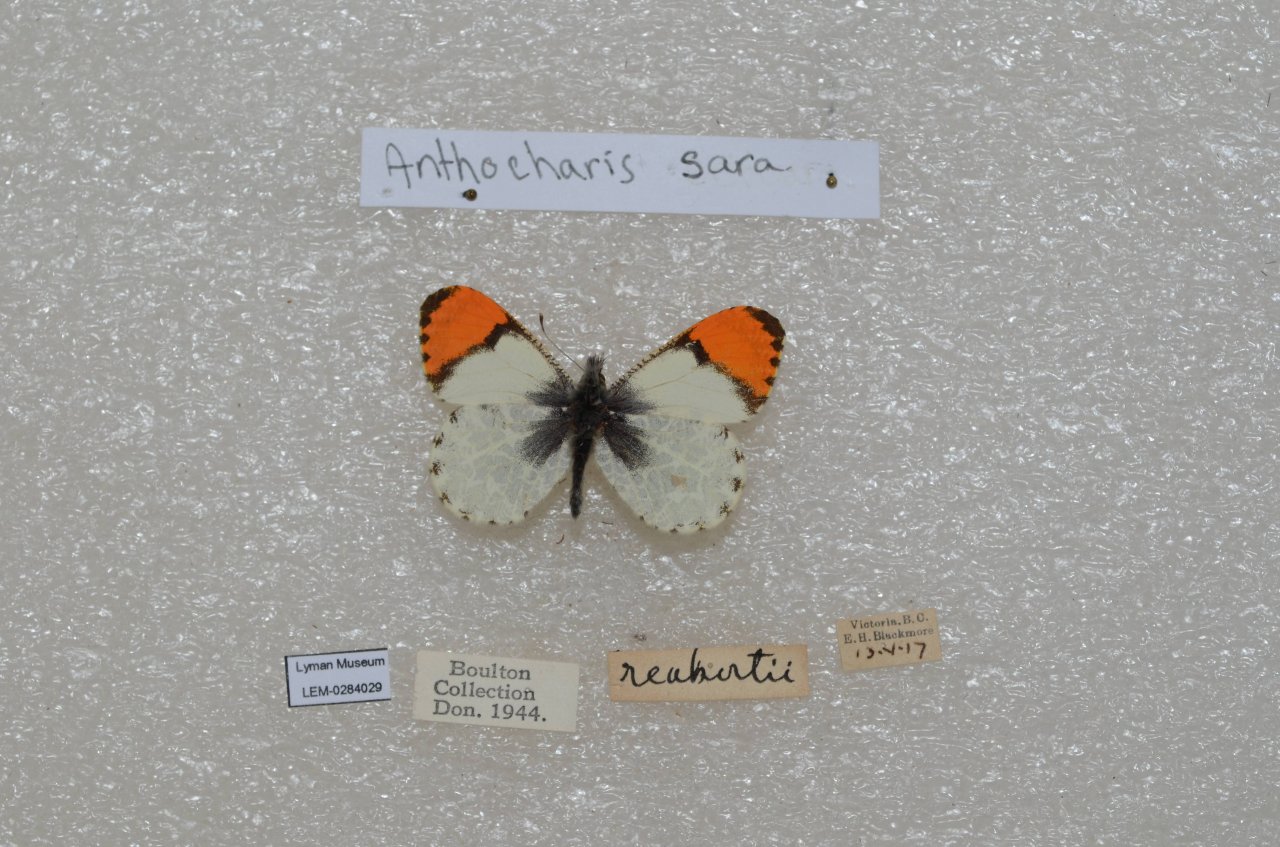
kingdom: Animalia
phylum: Arthropoda
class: Insecta
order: Lepidoptera
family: Pieridae
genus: Anthocharis
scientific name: Anthocharis sara
